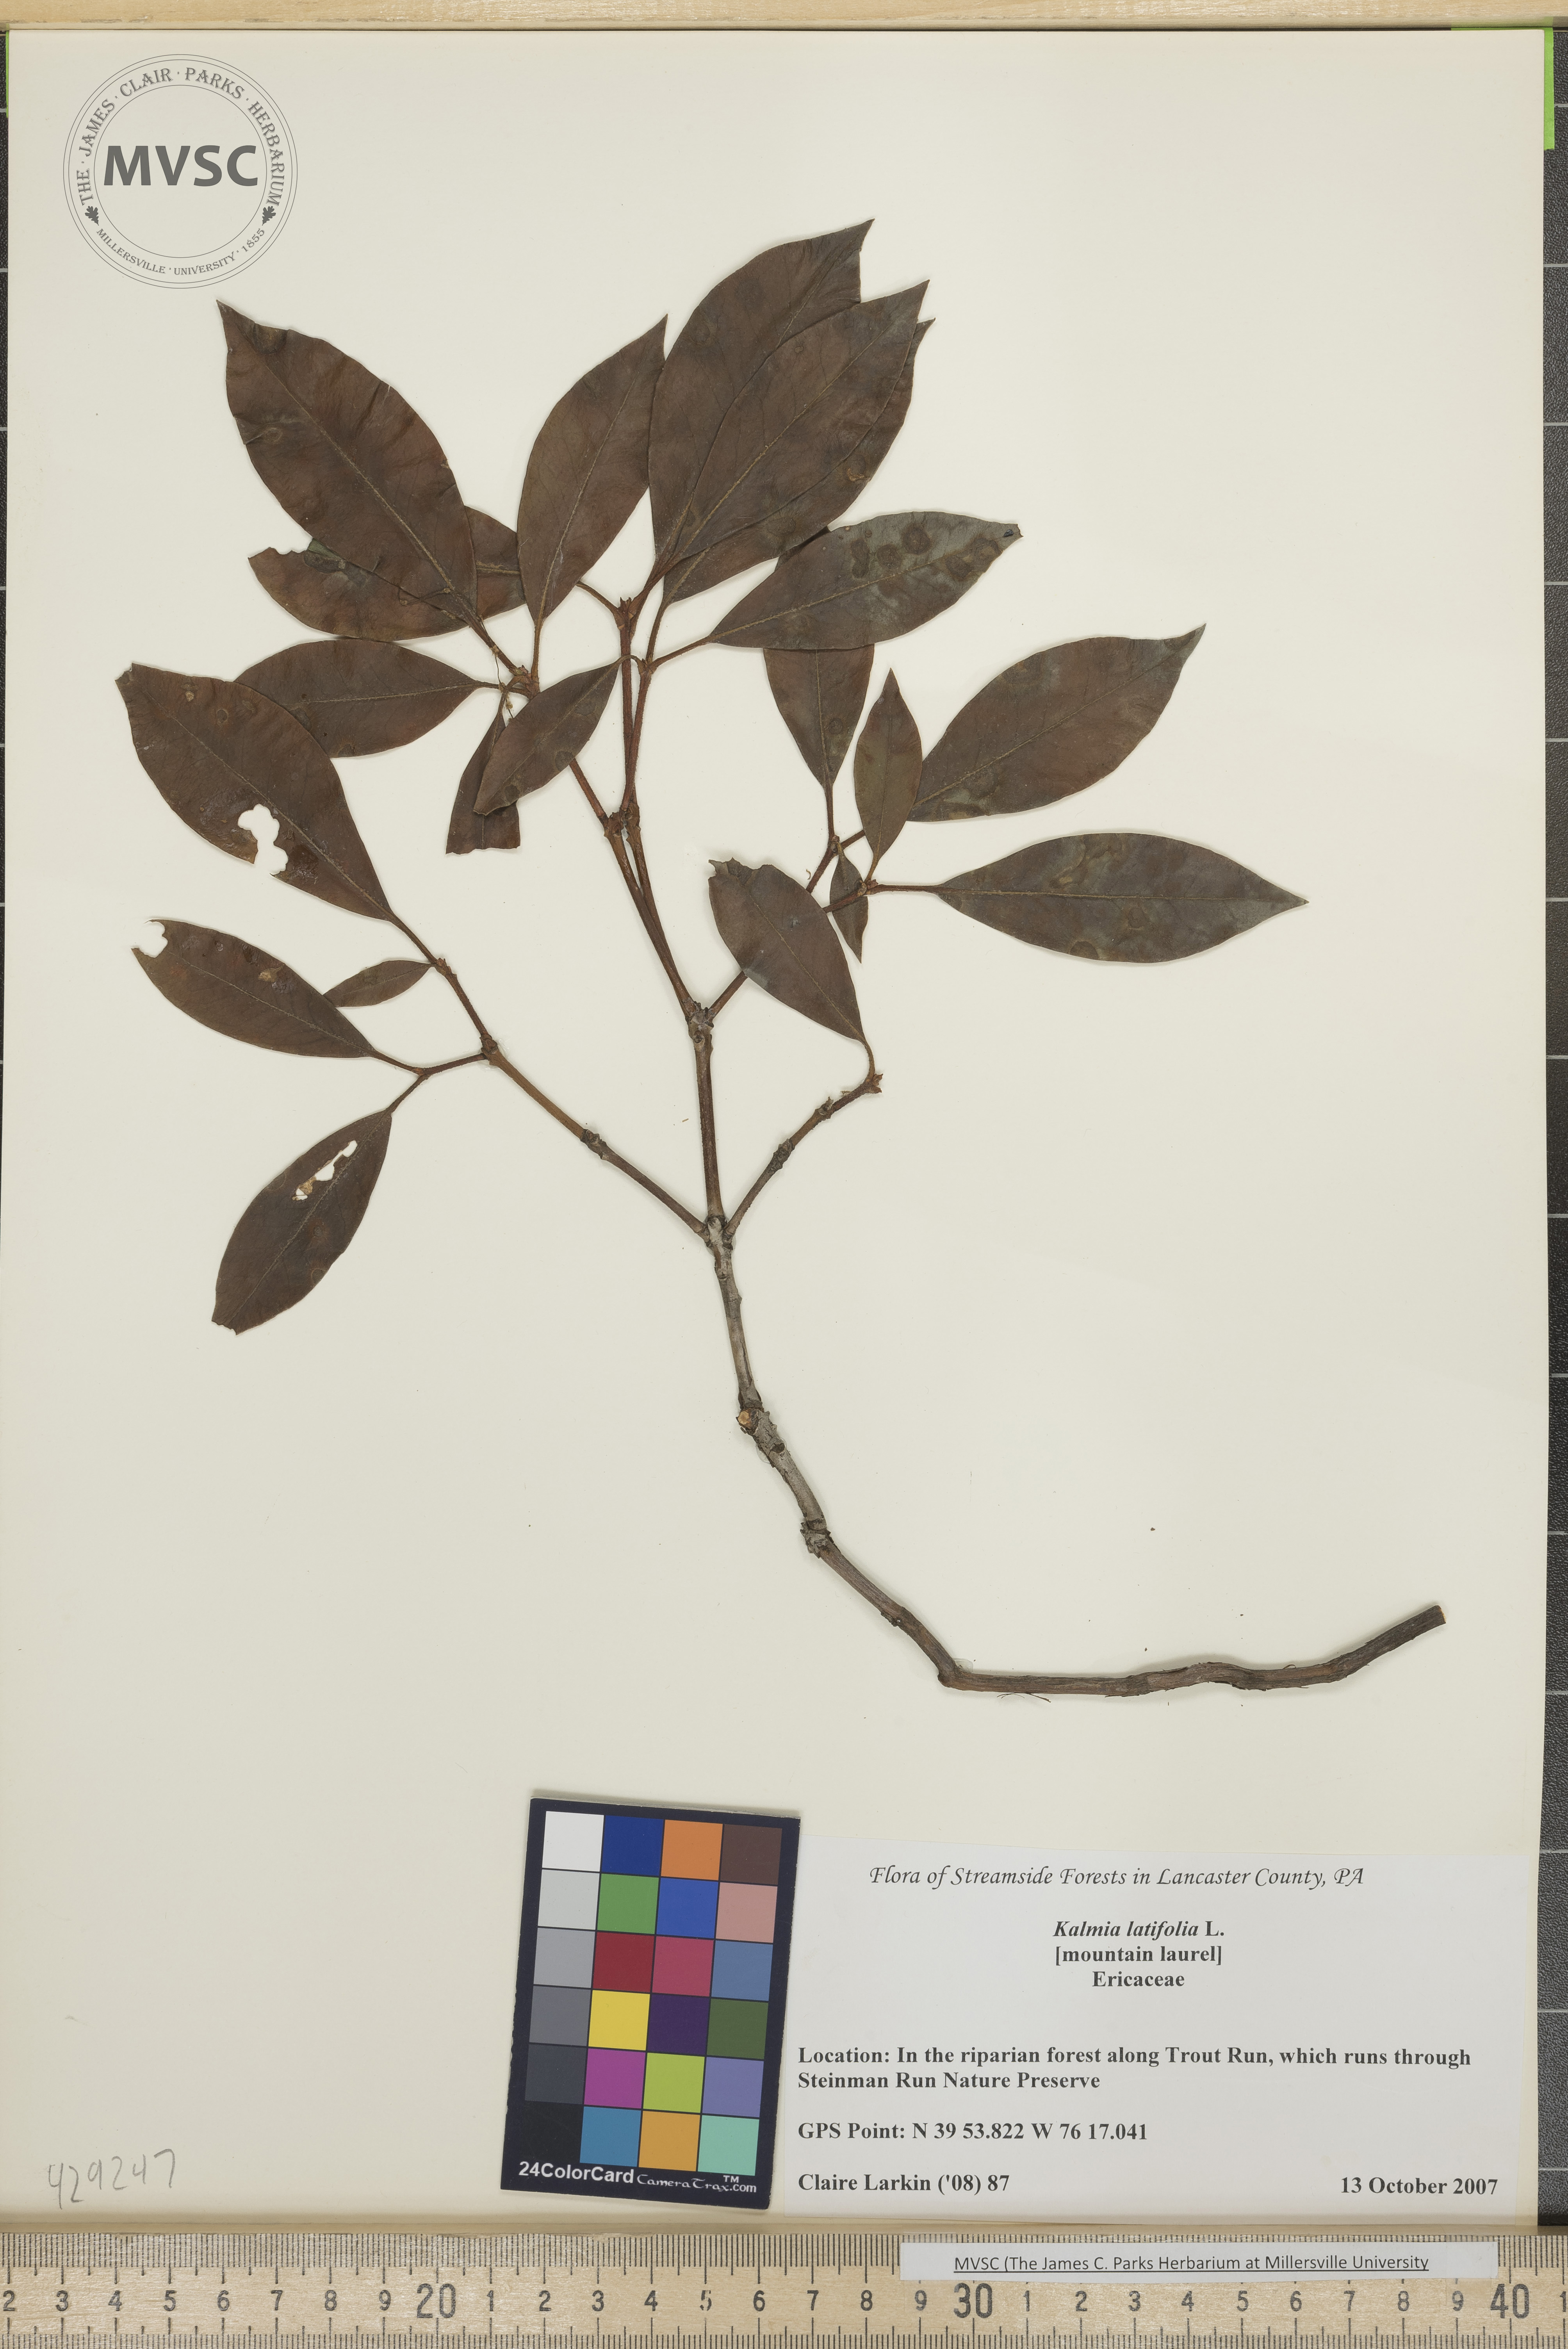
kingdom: Plantae
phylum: Tracheophyta
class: Magnoliopsida
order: Ericales
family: Ericaceae
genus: Kalmia
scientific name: Kalmia latifolia
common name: Mountain laurel
